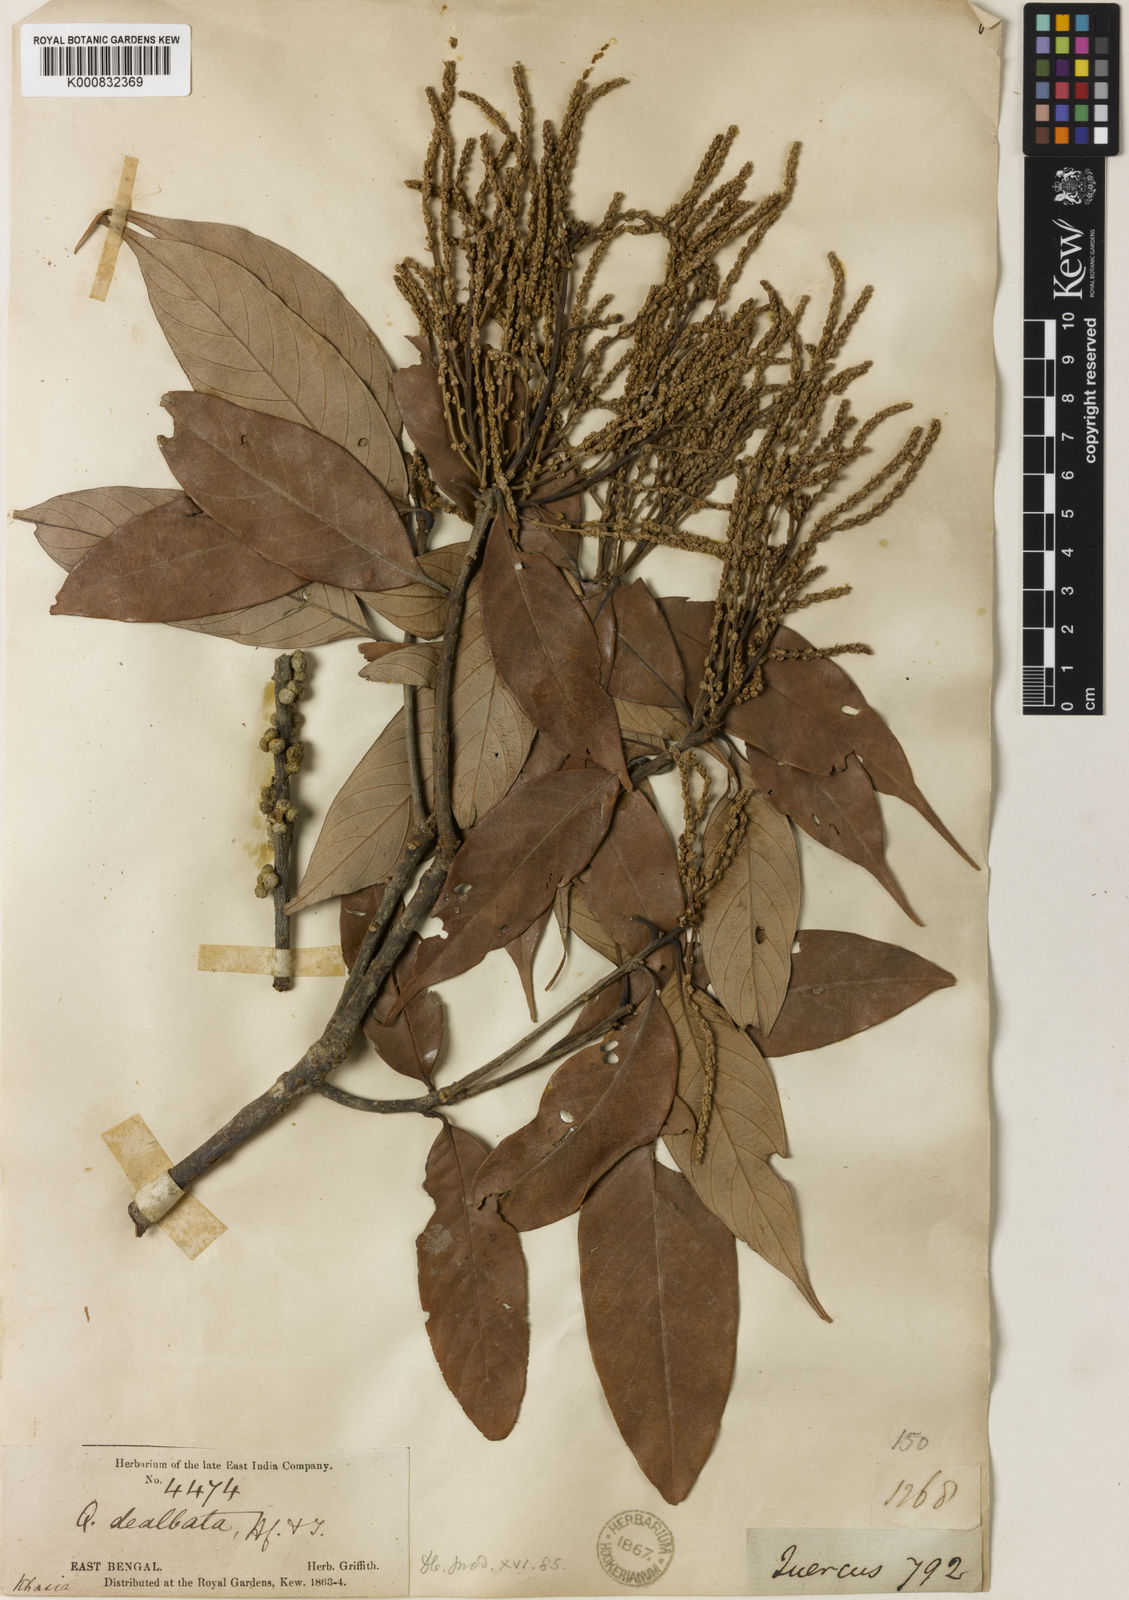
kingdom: Plantae
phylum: Tracheophyta
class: Magnoliopsida
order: Fagales
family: Fagaceae
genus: Lithocarpus
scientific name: Lithocarpus dealbatus
